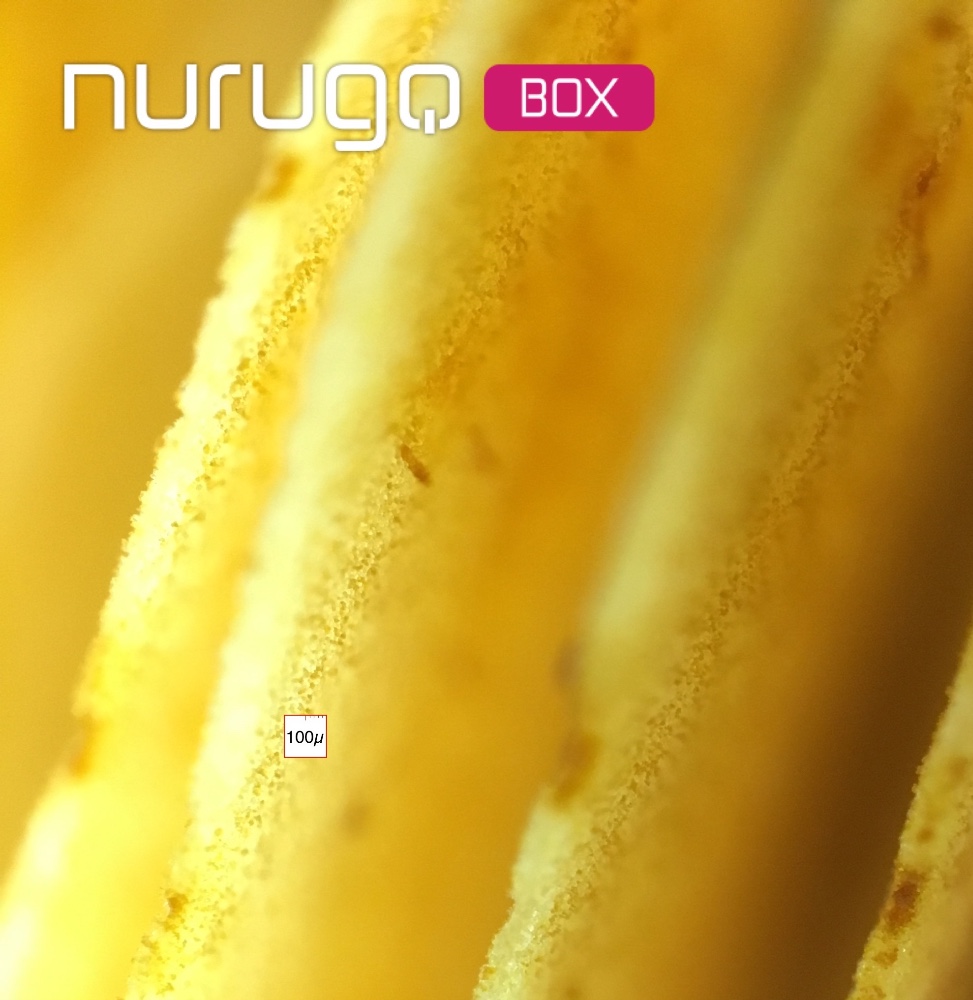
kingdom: Fungi
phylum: Basidiomycota
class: Agaricomycetes
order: Agaricales
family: Hymenogastraceae
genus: Gymnopilus
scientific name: Gymnopilus spectabilis
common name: fibret flammehat
